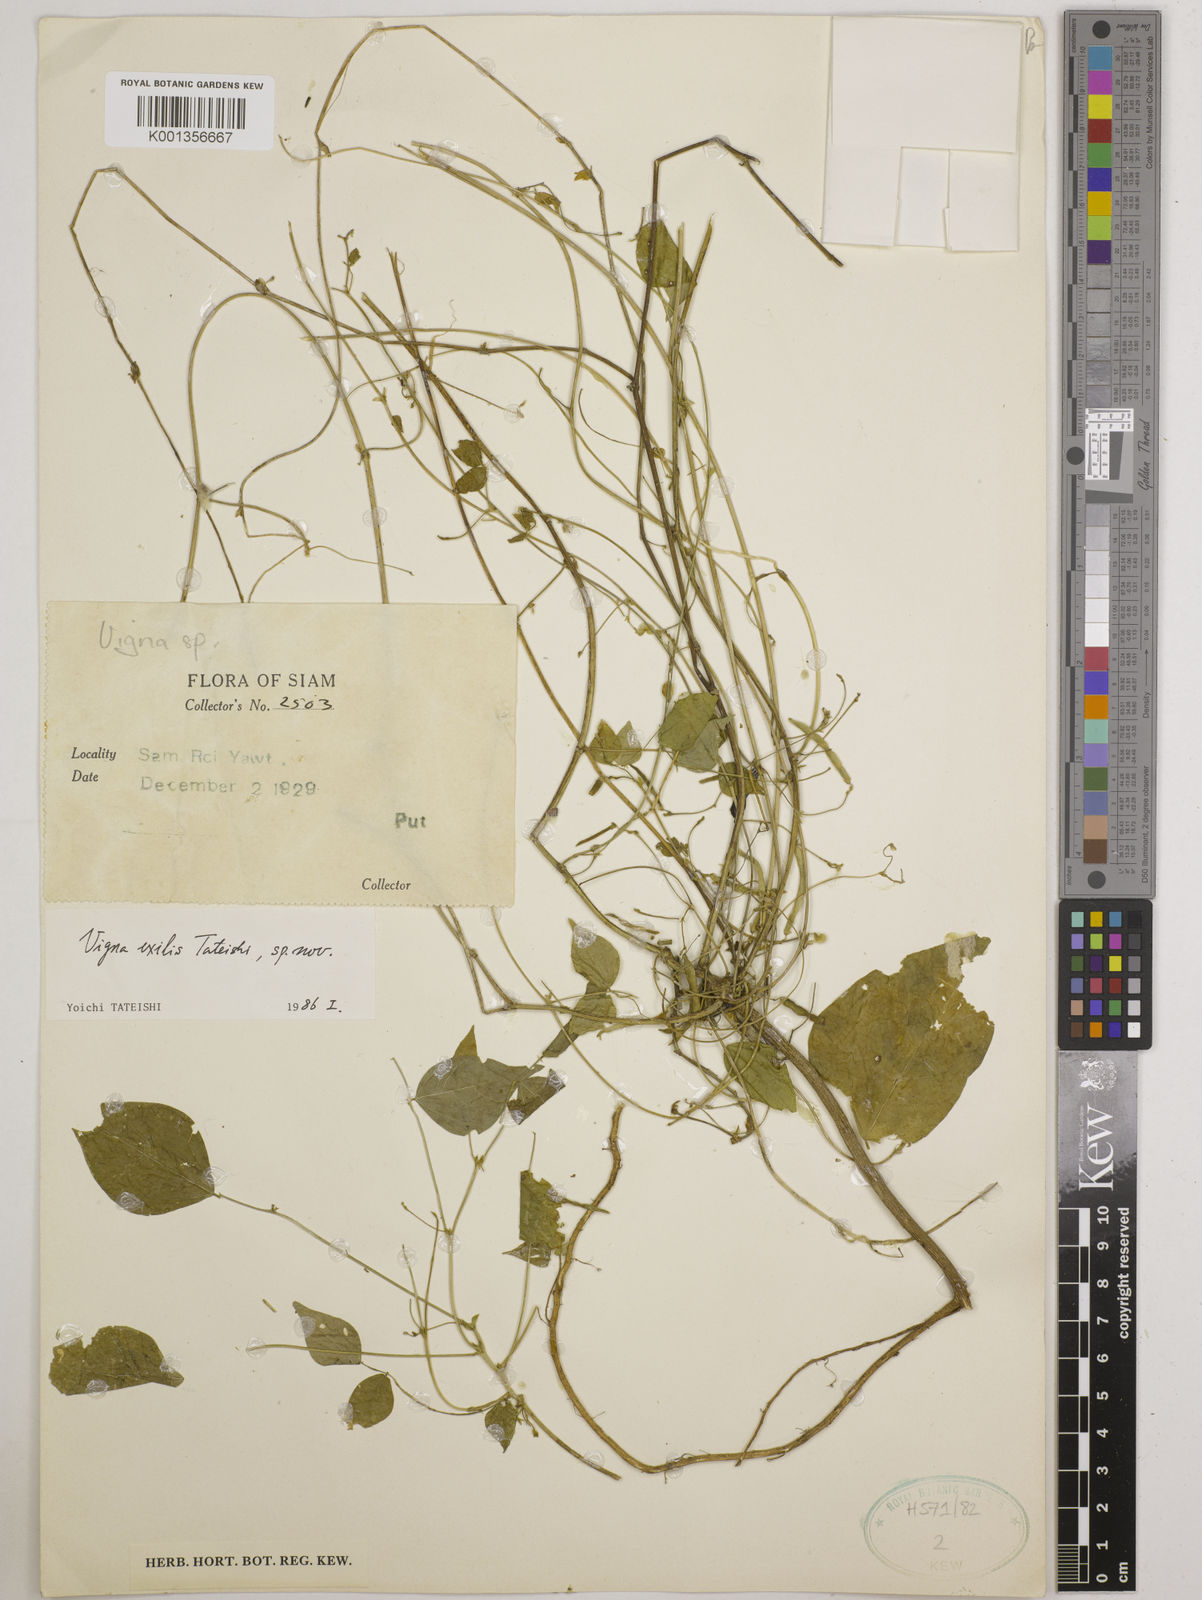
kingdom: Plantae
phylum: Tracheophyta
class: Magnoliopsida
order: Fabales
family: Fabaceae
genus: Vigna
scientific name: Vigna
